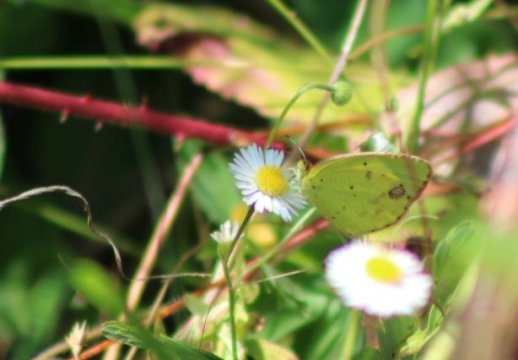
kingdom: Animalia
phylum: Arthropoda
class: Insecta
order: Lepidoptera
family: Pieridae
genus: Pyrisitia
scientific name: Pyrisitia lisa
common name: Little Yellow
